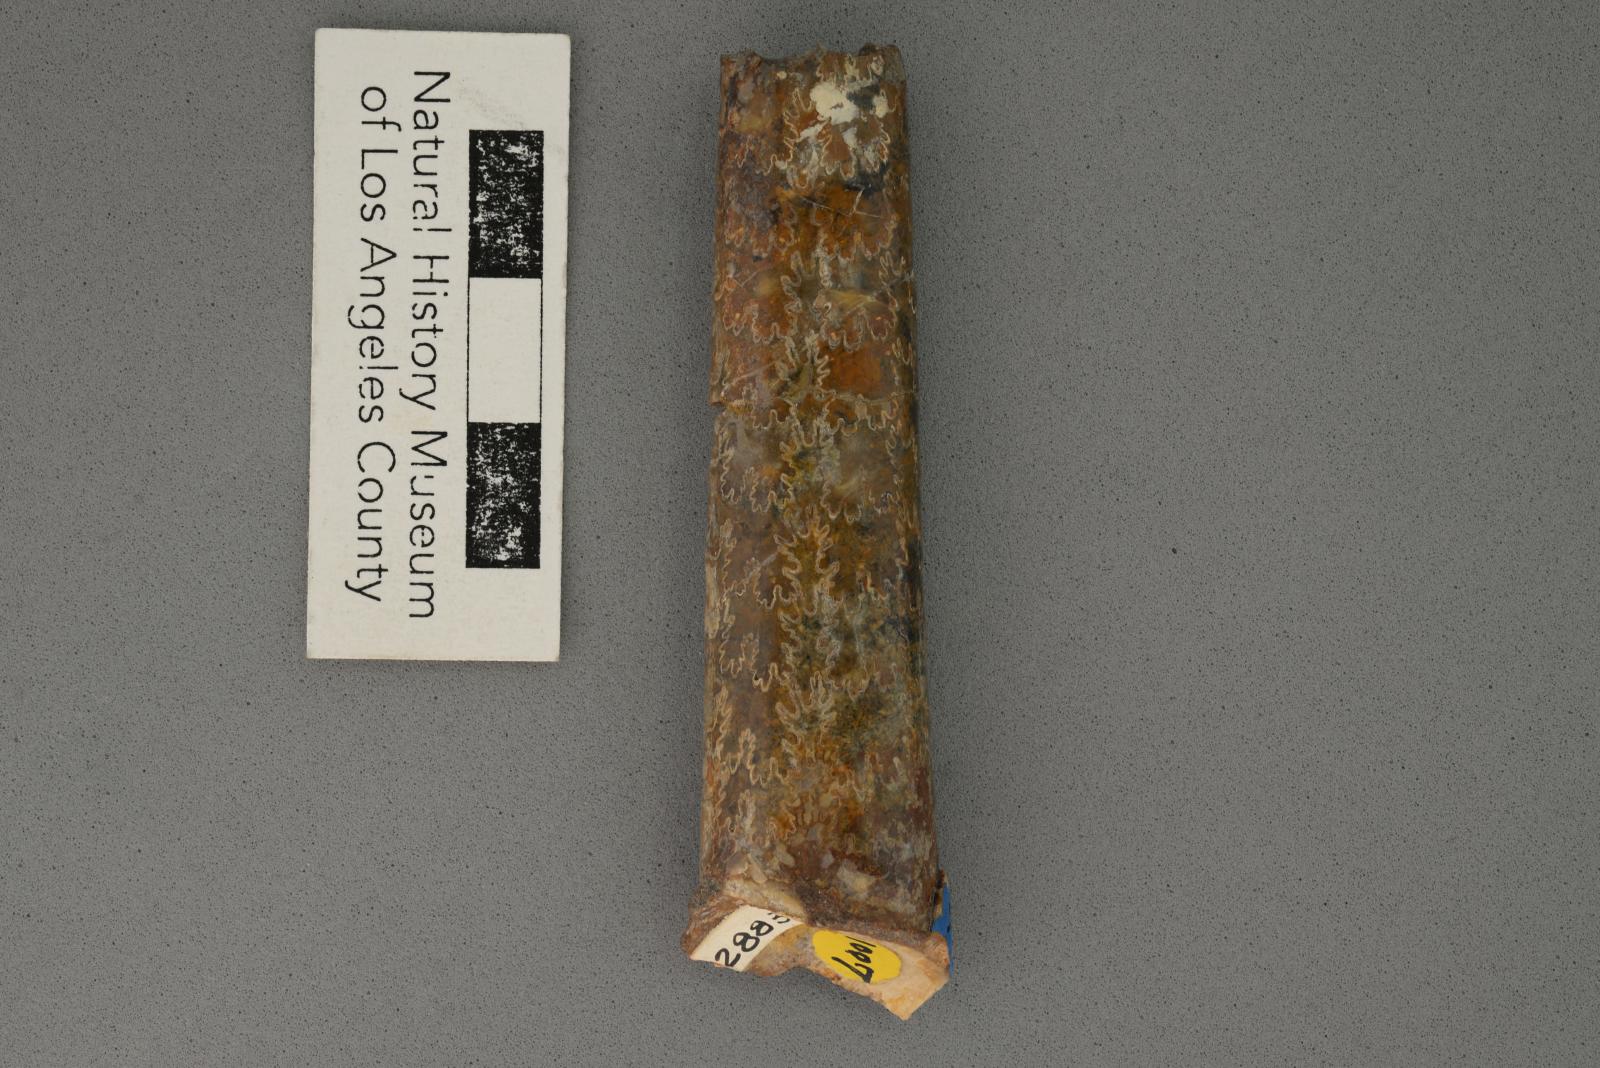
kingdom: Animalia
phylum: Mollusca
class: Cephalopoda
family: Baculitidae
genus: Baculites
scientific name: Baculites boulei
